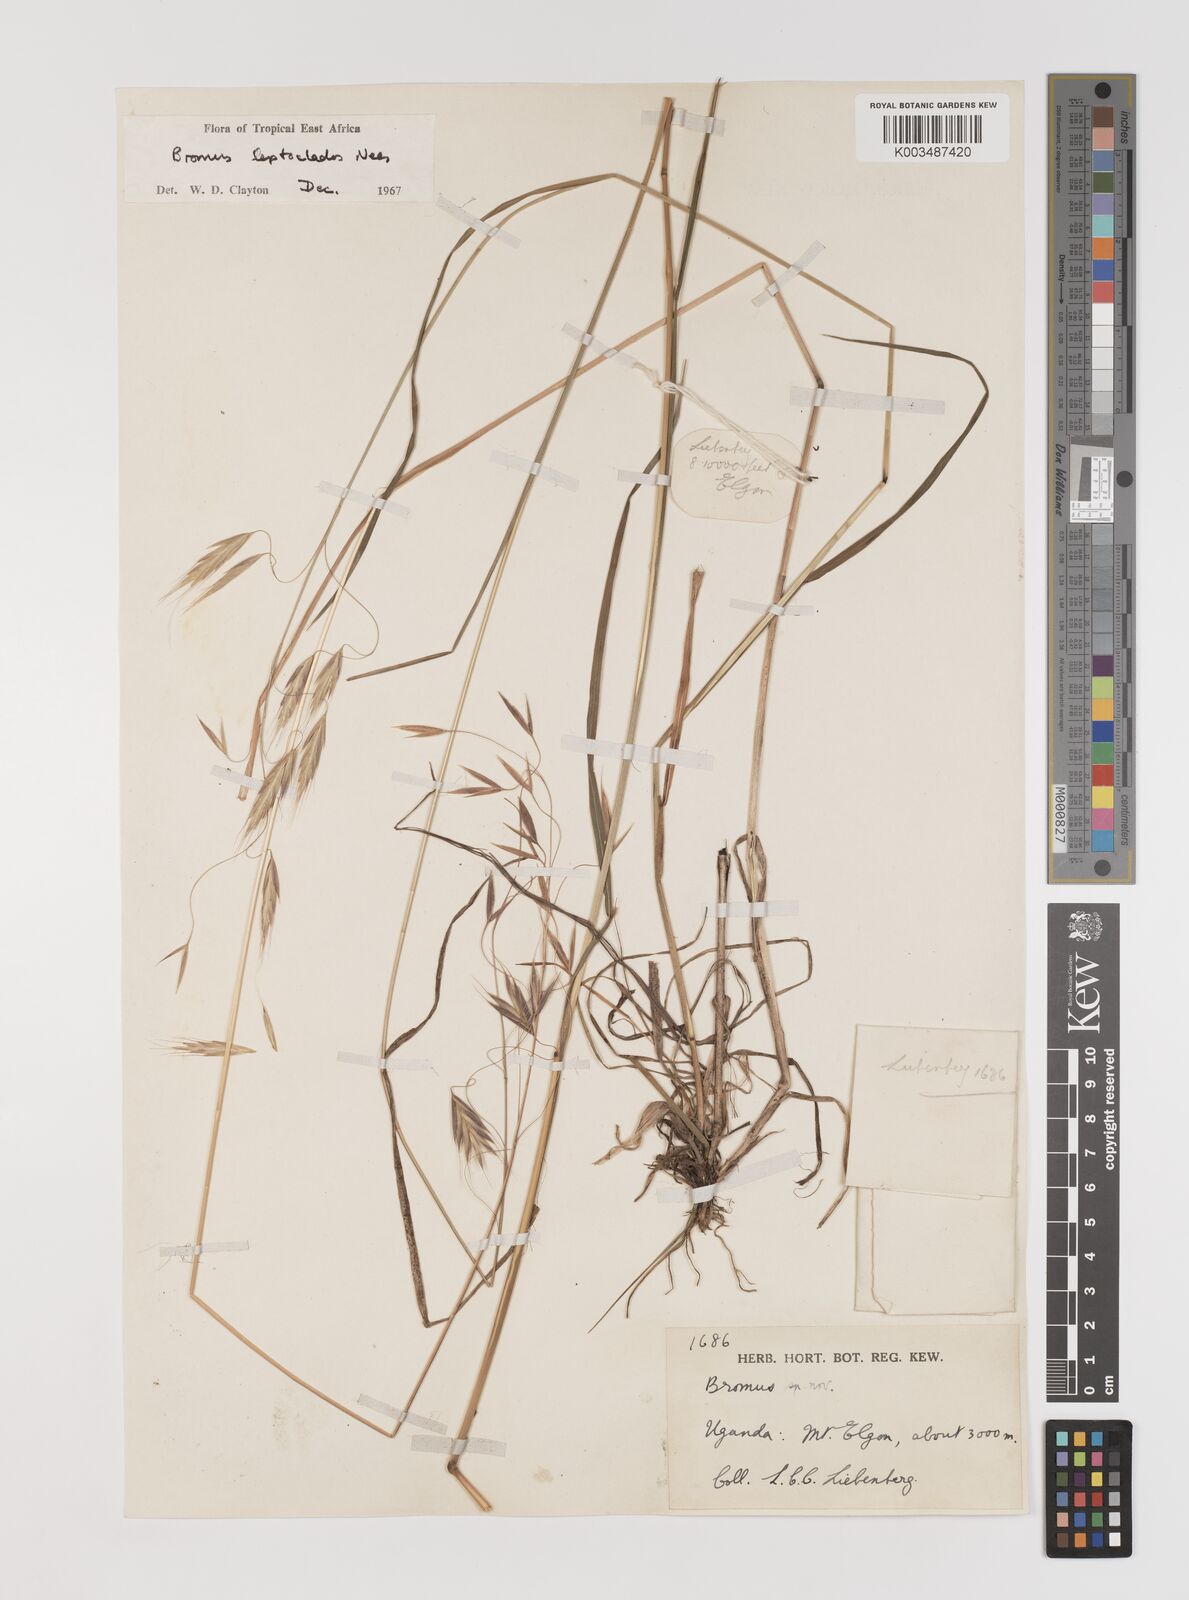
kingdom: Plantae
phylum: Tracheophyta
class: Liliopsida
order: Poales
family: Poaceae
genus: Bromus
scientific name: Bromus leptoclados
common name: Mountain bromegrass
